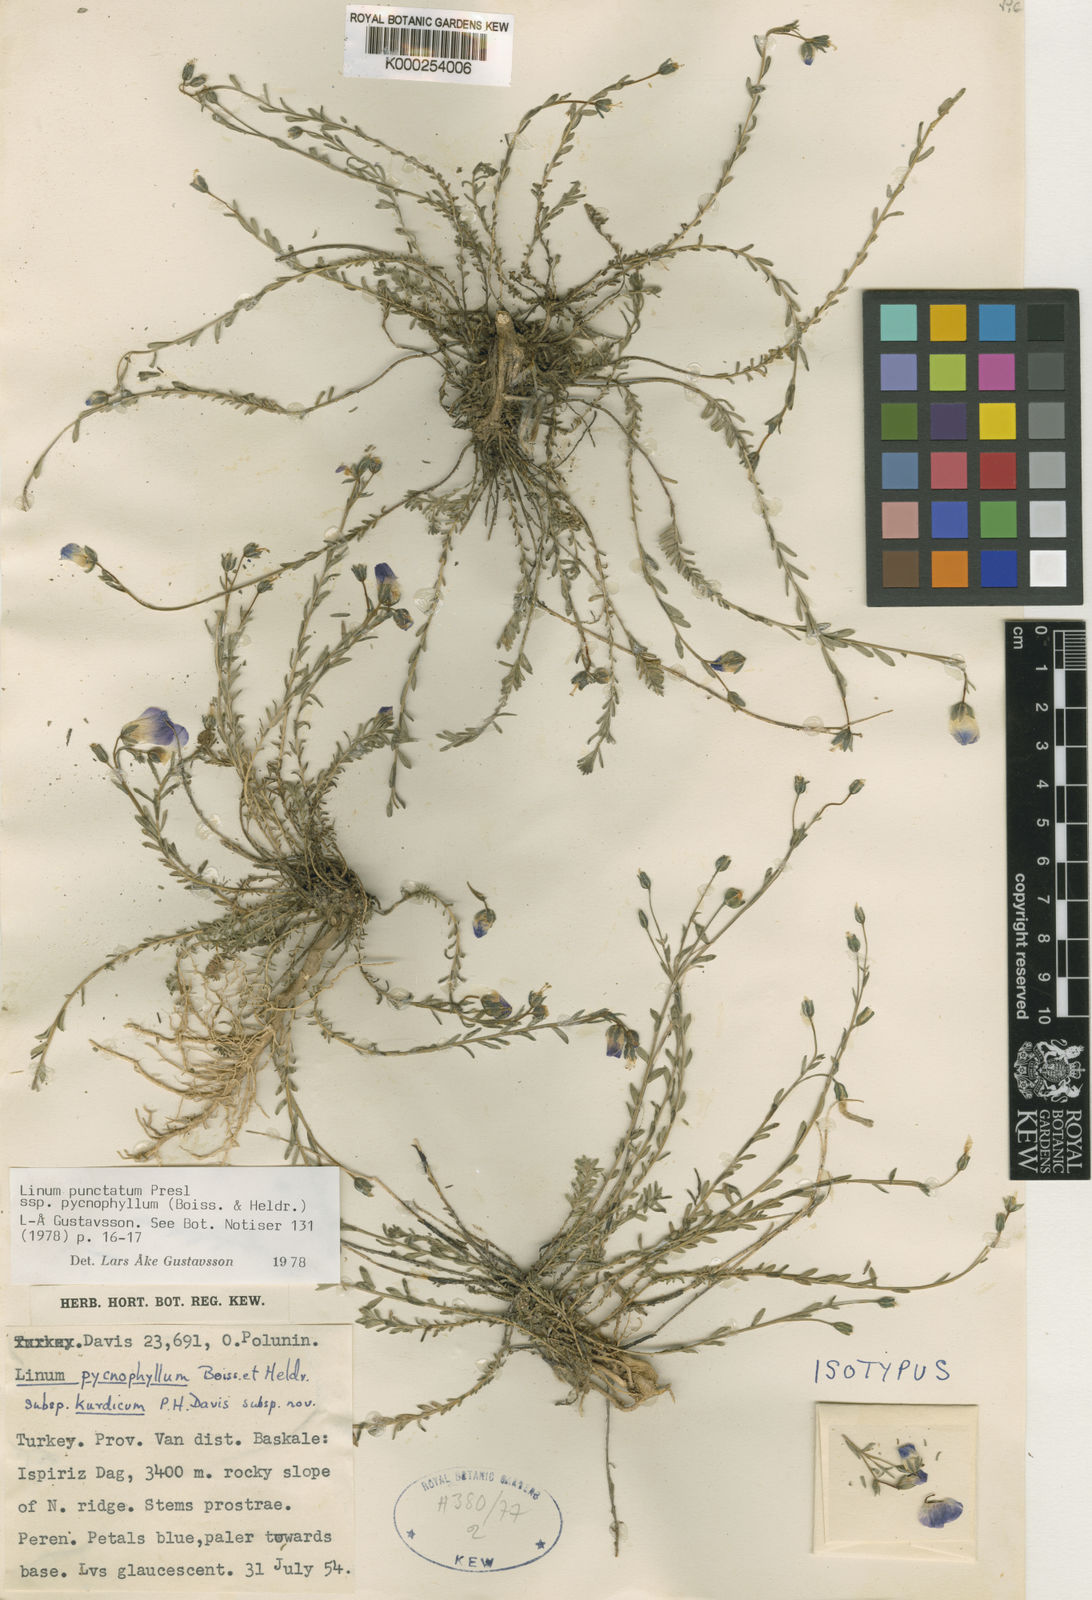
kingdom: Plantae
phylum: Tracheophyta
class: Magnoliopsida
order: Malpighiales
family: Linaceae
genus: Linum
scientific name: Linum punctatum
